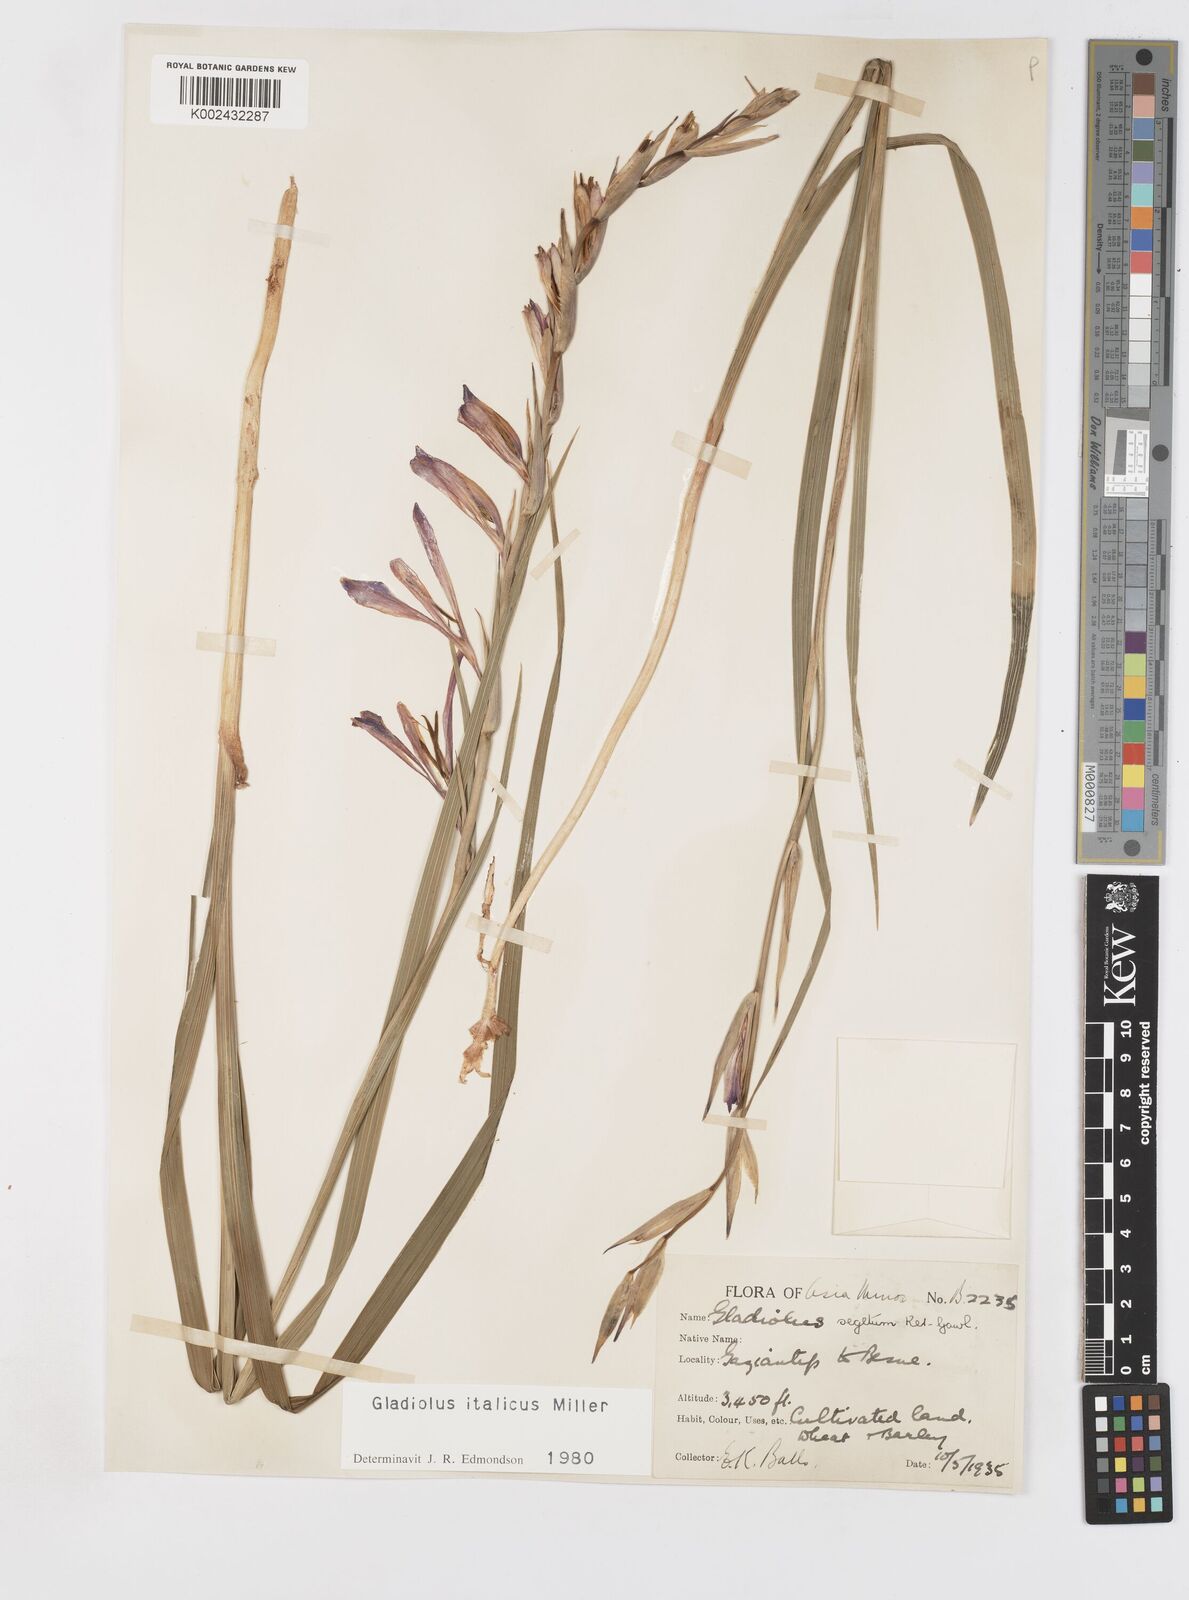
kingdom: Plantae
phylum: Tracheophyta
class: Liliopsida
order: Asparagales
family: Iridaceae
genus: Gladiolus
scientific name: Gladiolus italicus
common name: Field gladiolus
